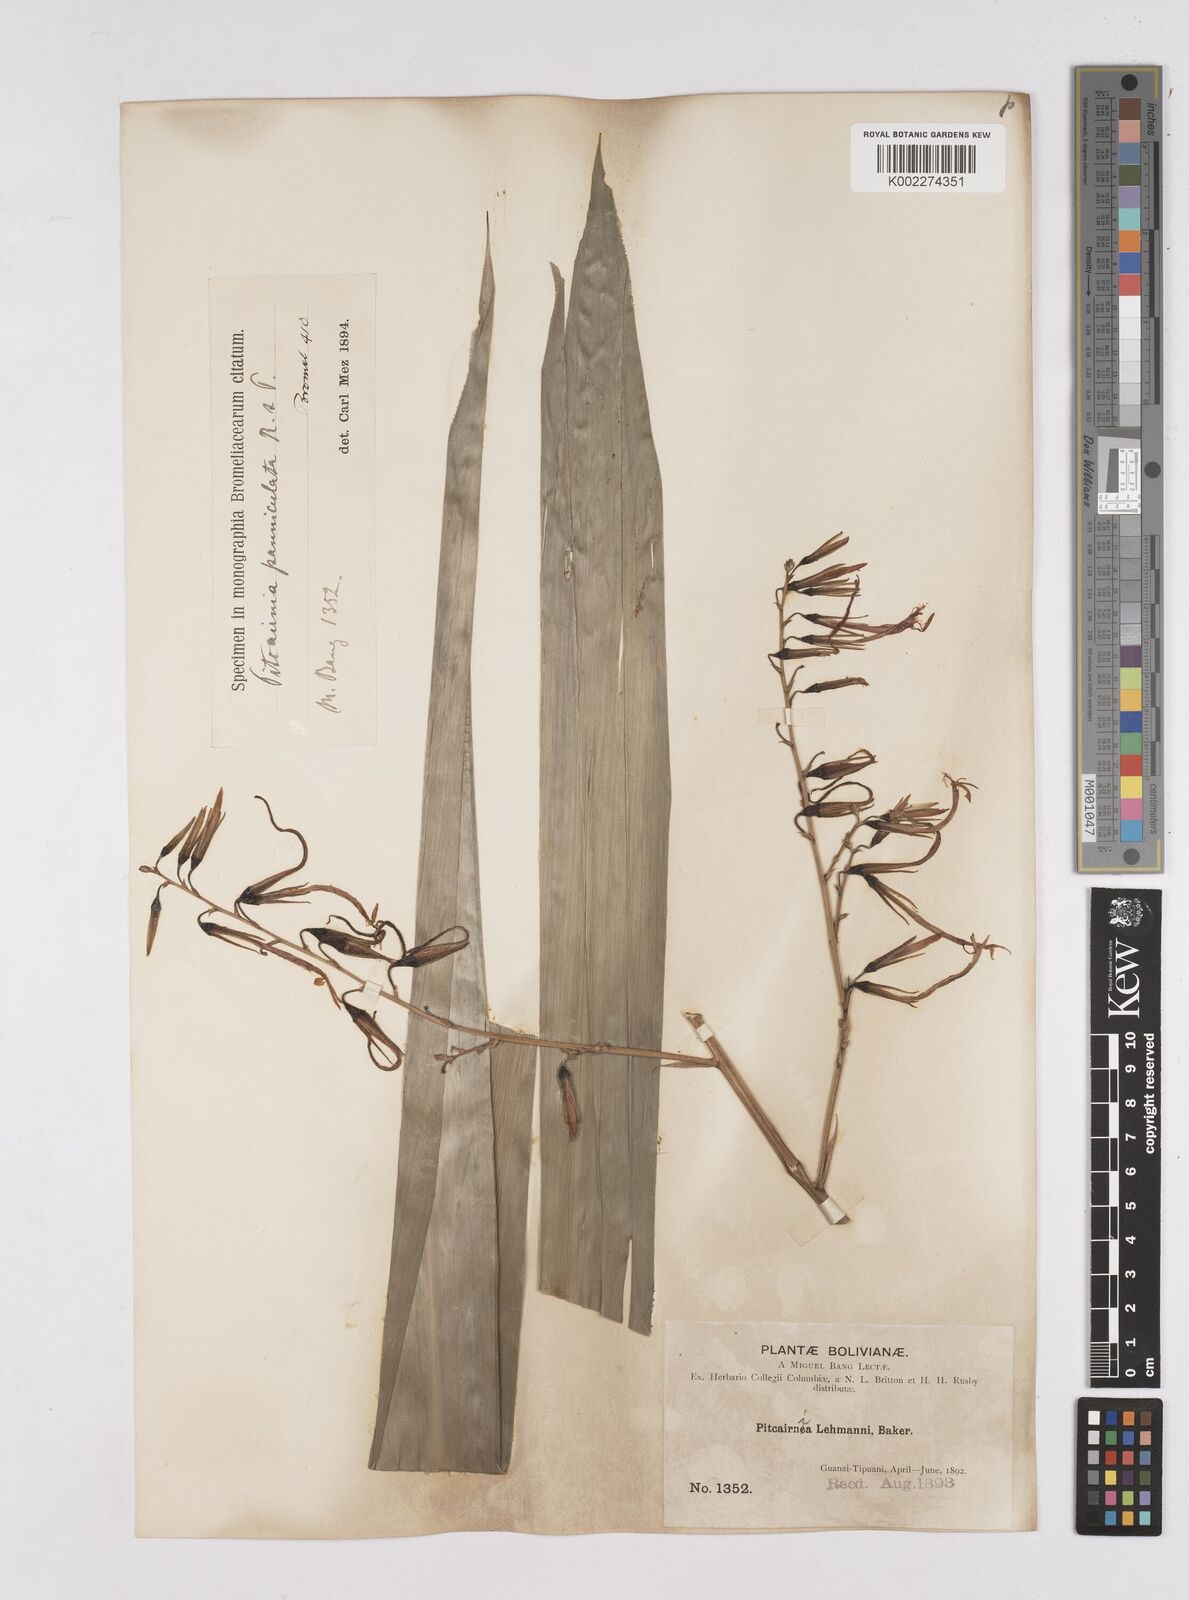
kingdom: Plantae
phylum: Tracheophyta
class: Liliopsida
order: Poales
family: Bromeliaceae
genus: Pitcairnia
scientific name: Pitcairnia paniculata
